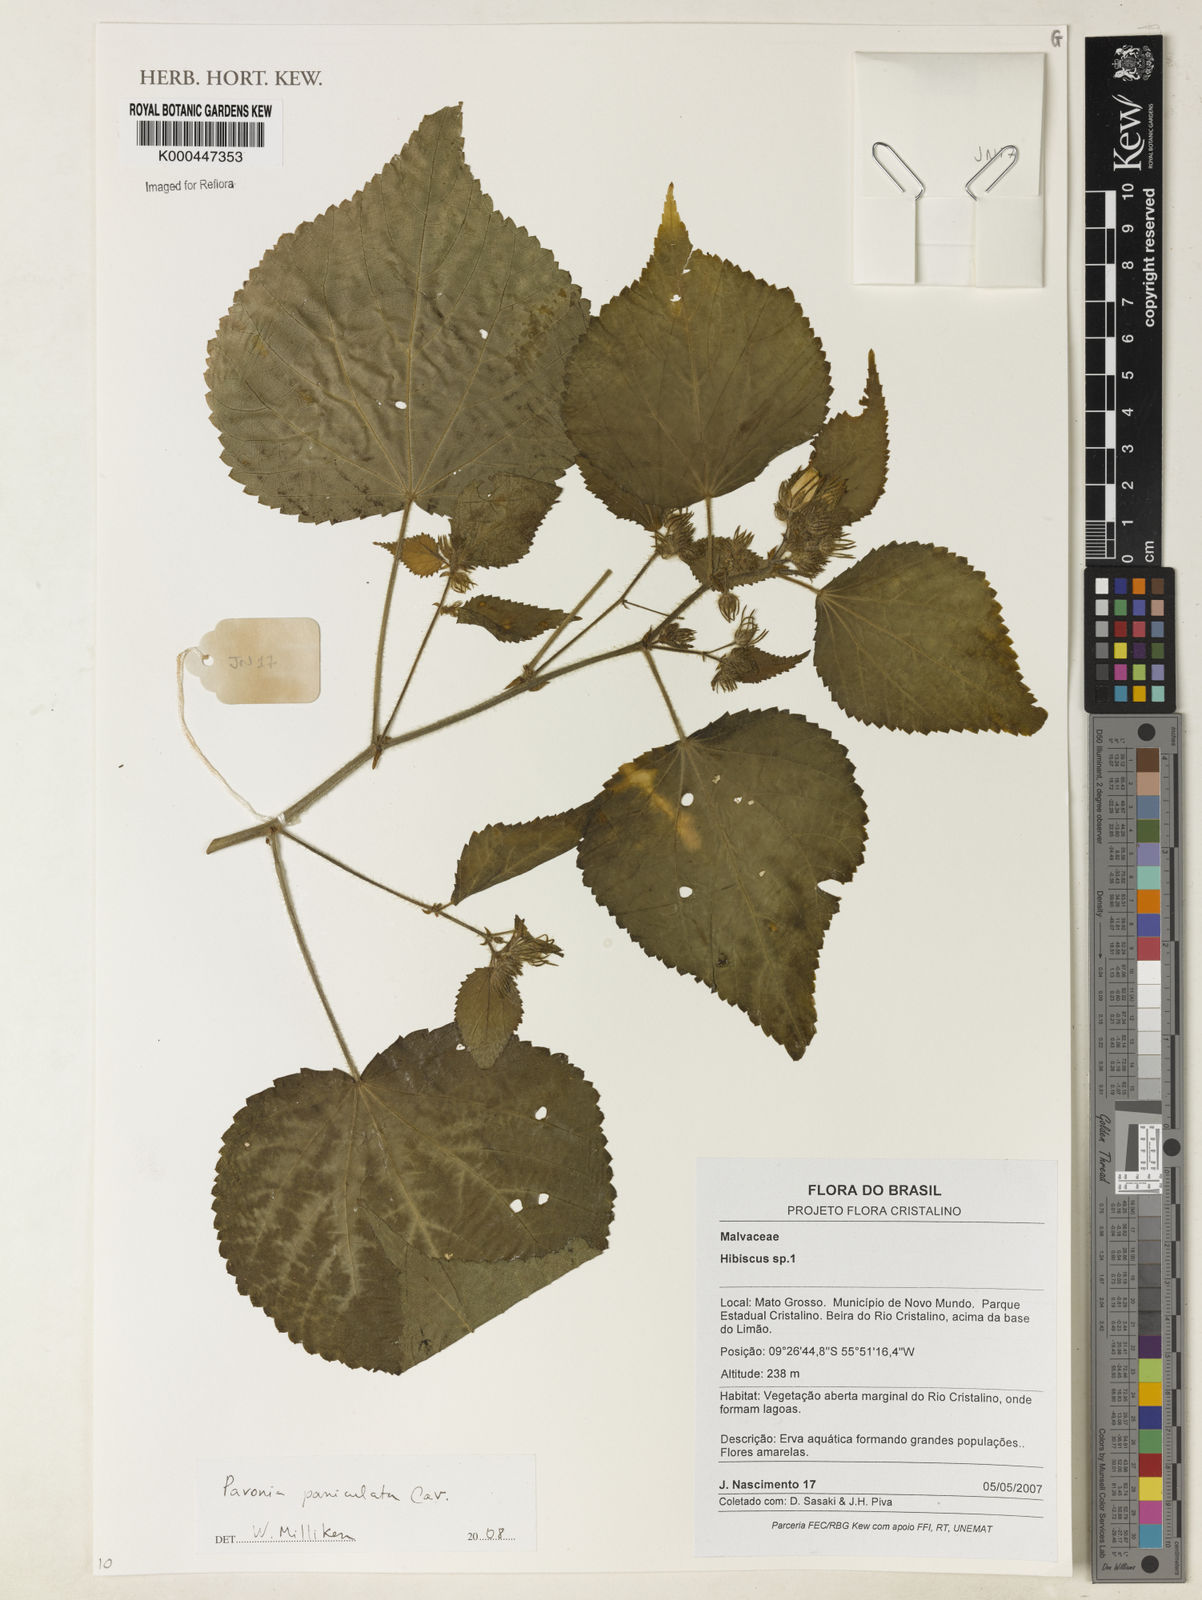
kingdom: Plantae
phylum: Tracheophyta
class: Magnoliopsida
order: Malvales
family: Malvaceae
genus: Pavonia
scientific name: Pavonia paniculata
